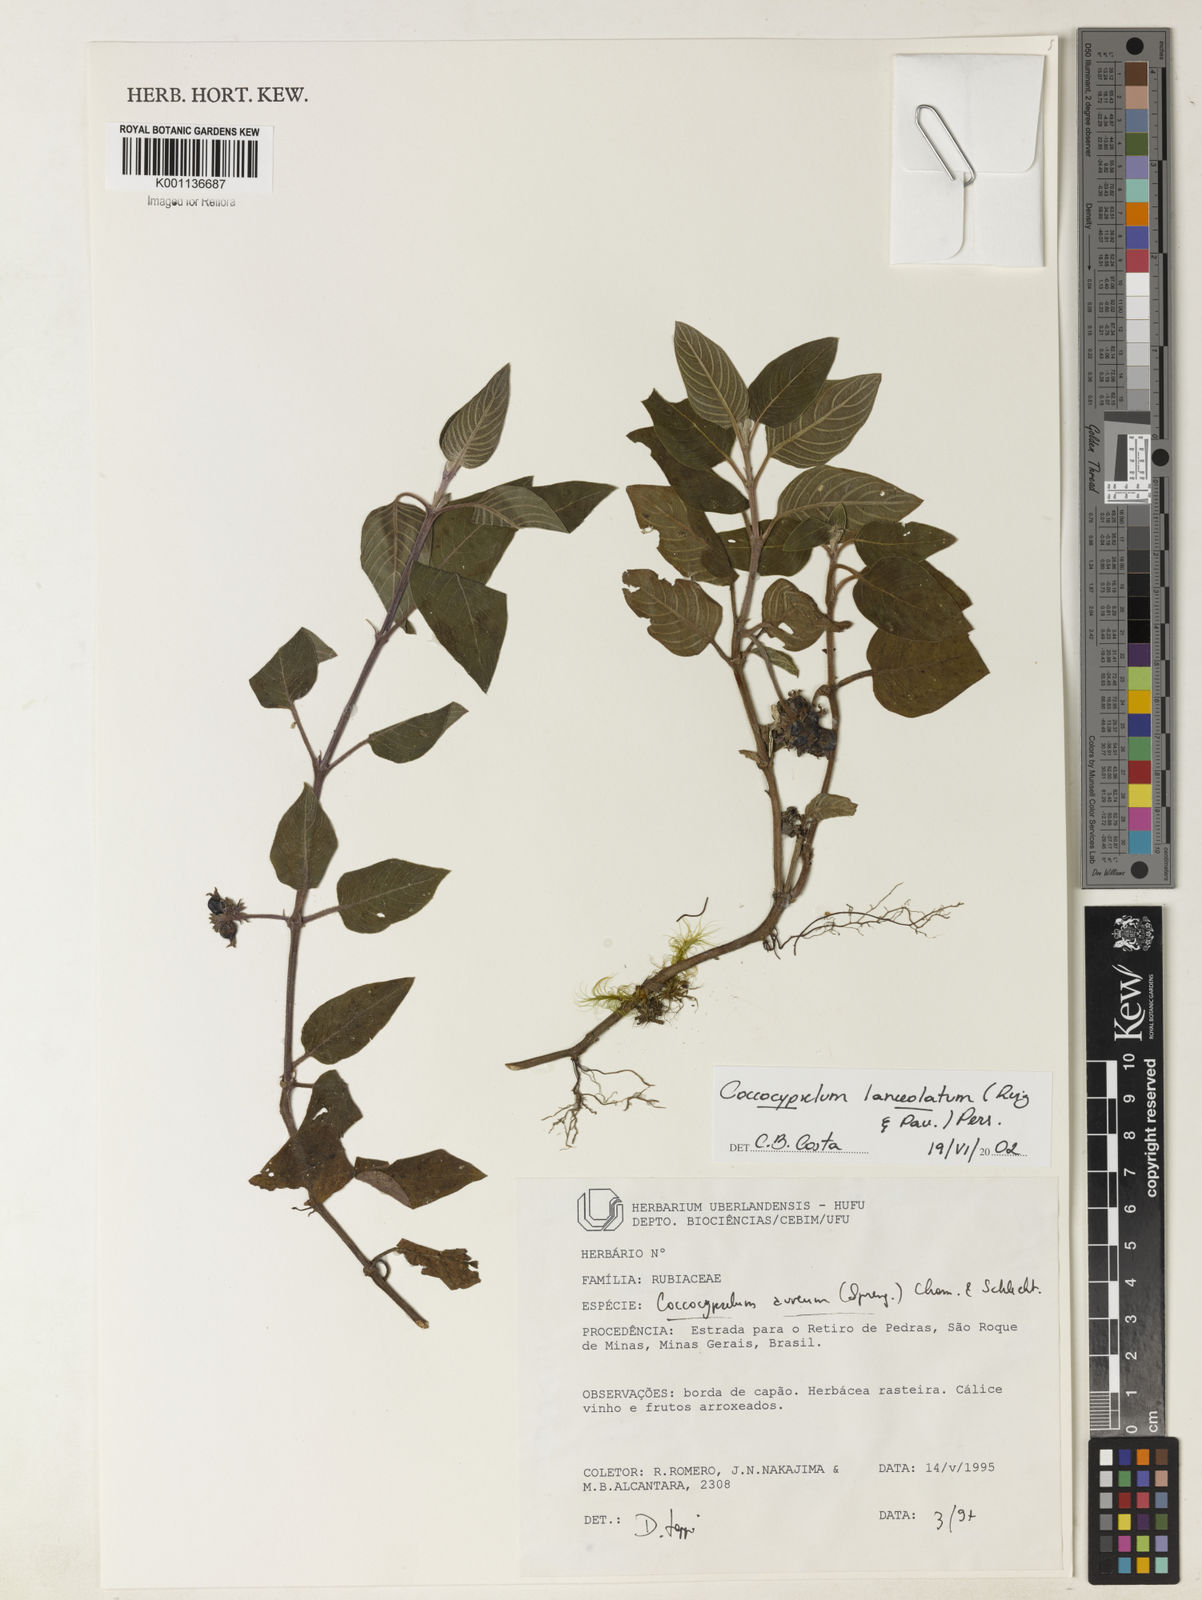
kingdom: Plantae
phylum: Tracheophyta
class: Magnoliopsida
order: Gentianales
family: Rubiaceae
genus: Coccocypselum
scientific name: Coccocypselum lanceolatum
